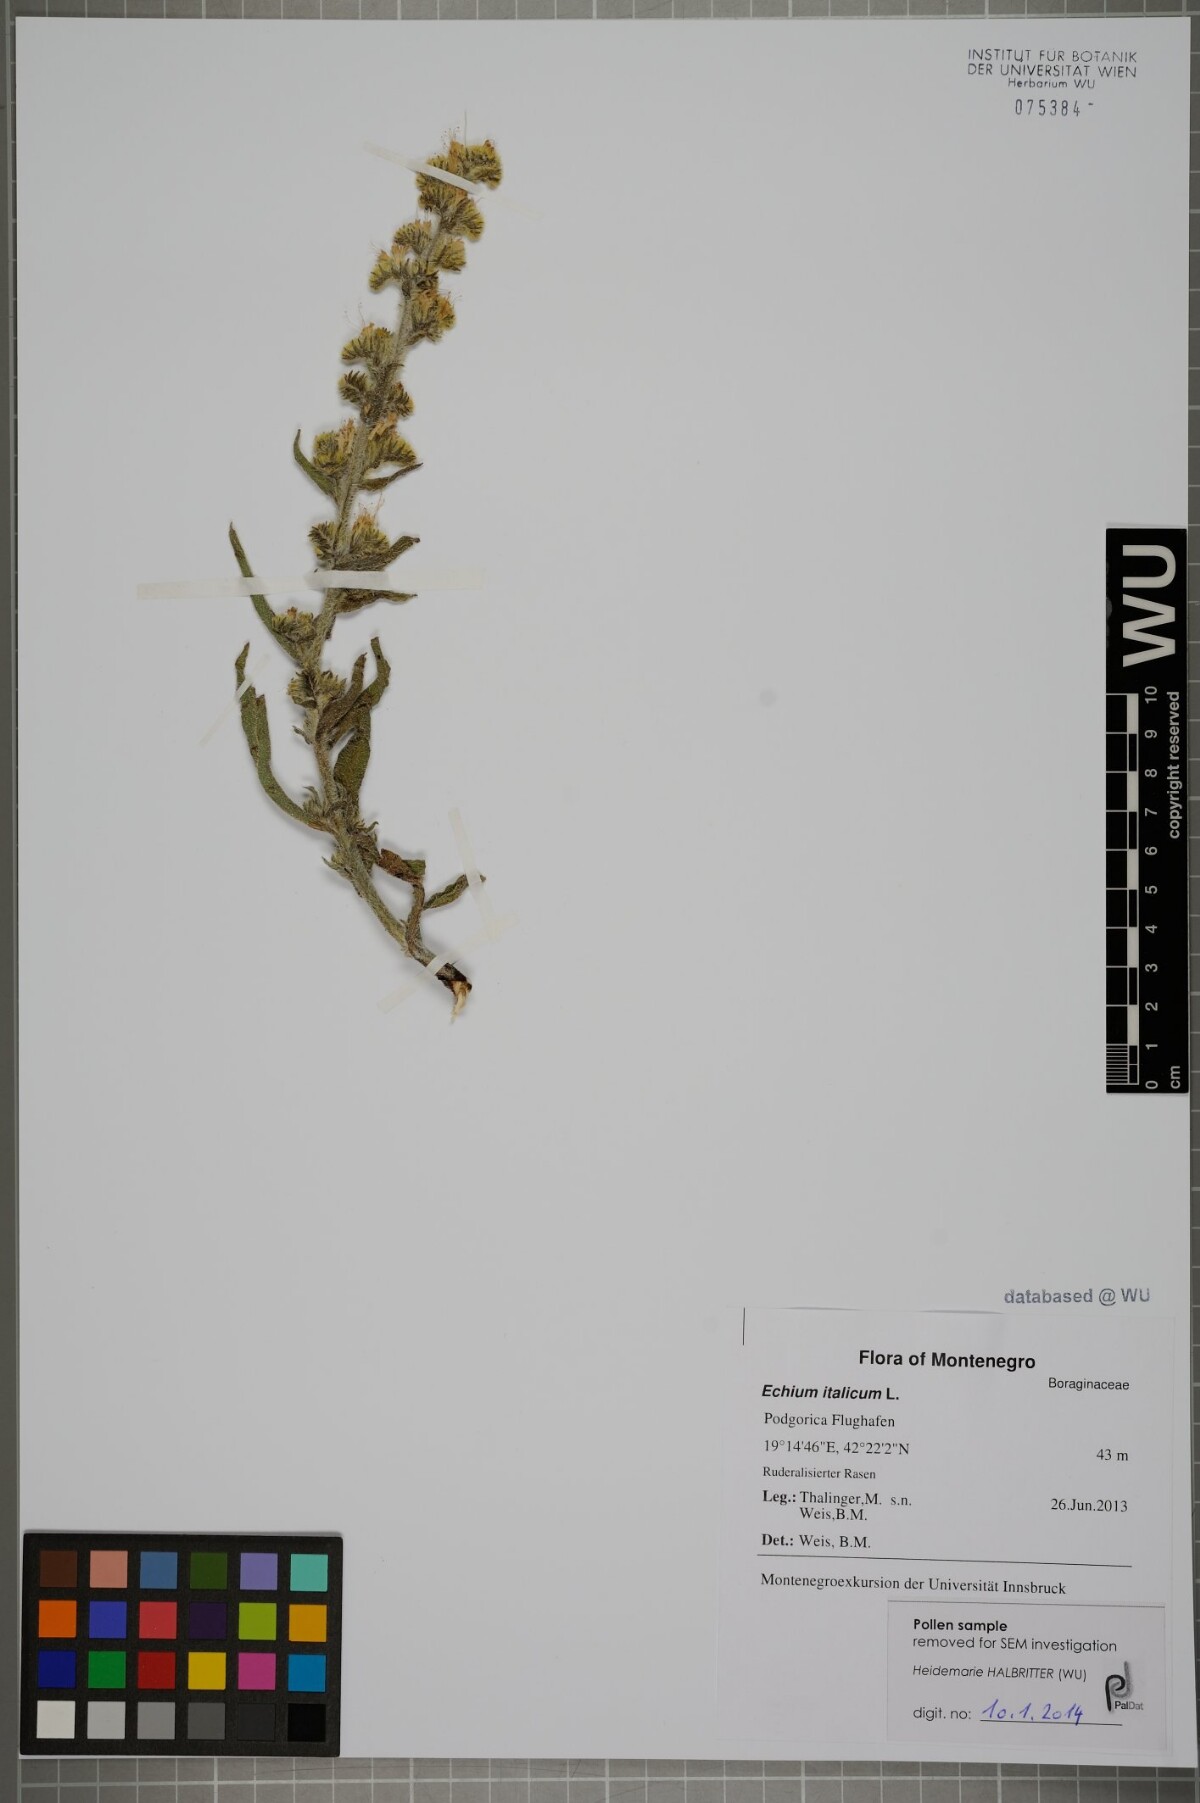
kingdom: Plantae
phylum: Tracheophyta
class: Magnoliopsida
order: Boraginales
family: Boraginaceae
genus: Echium
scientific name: Echium italicum
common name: Italian viper's bugloss
